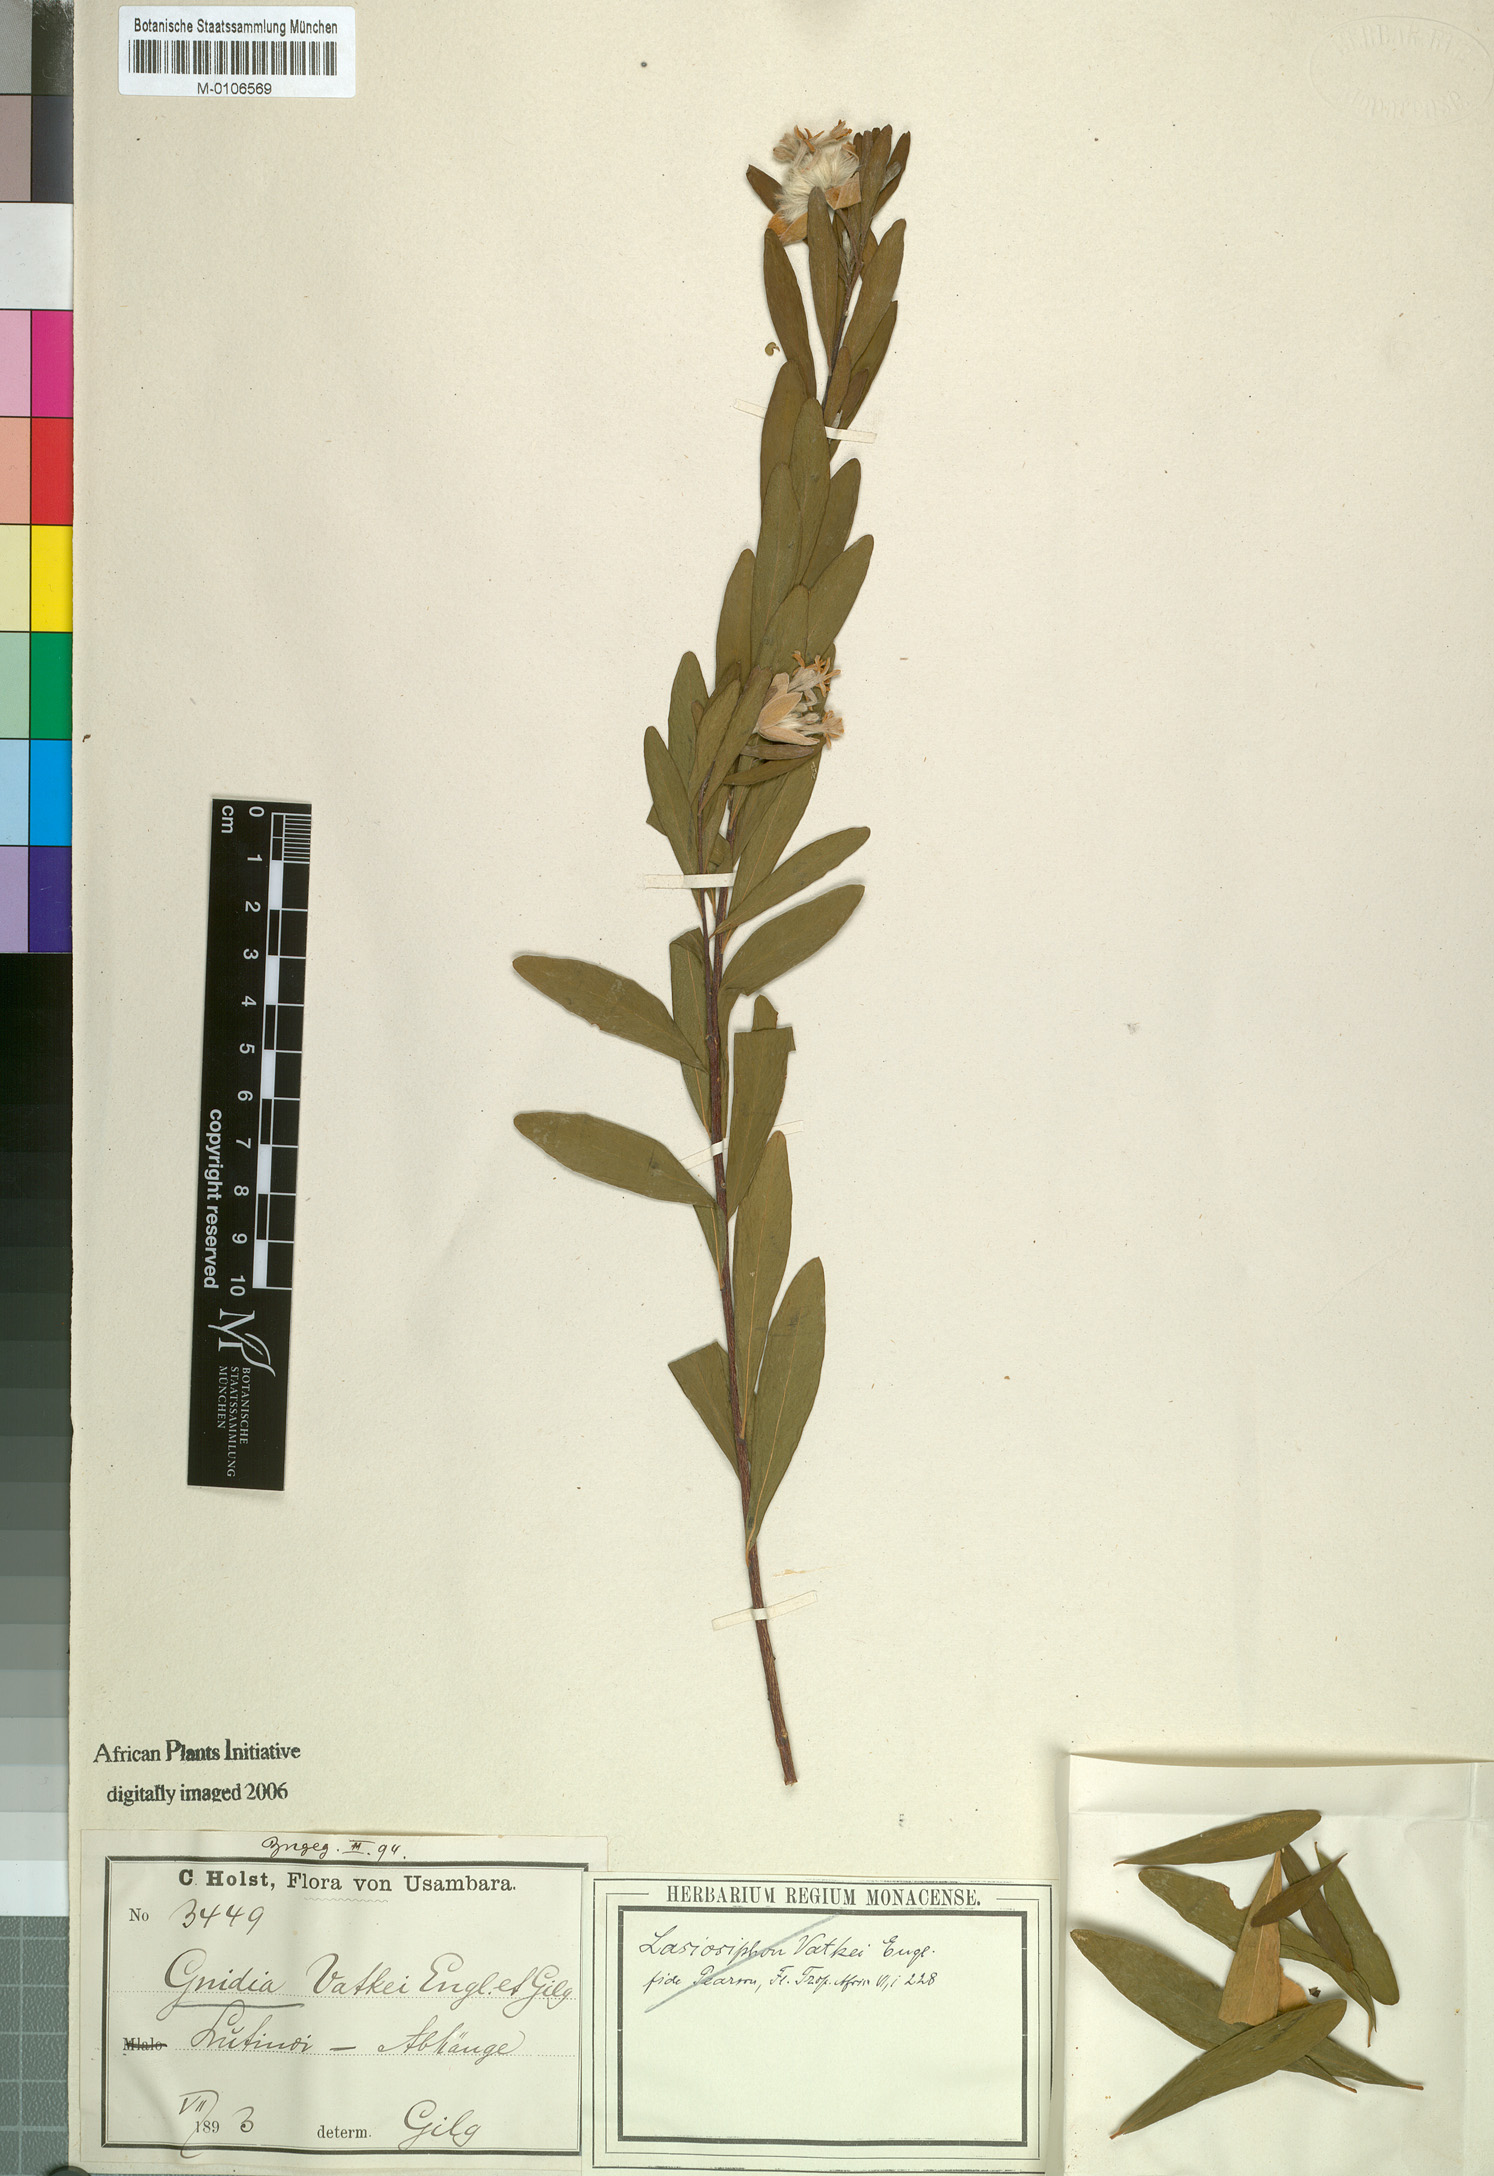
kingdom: Plantae
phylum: Tracheophyta
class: Magnoliopsida
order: Malvales
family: Thymelaeaceae
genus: Gnidia
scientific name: Gnidia latifolia
